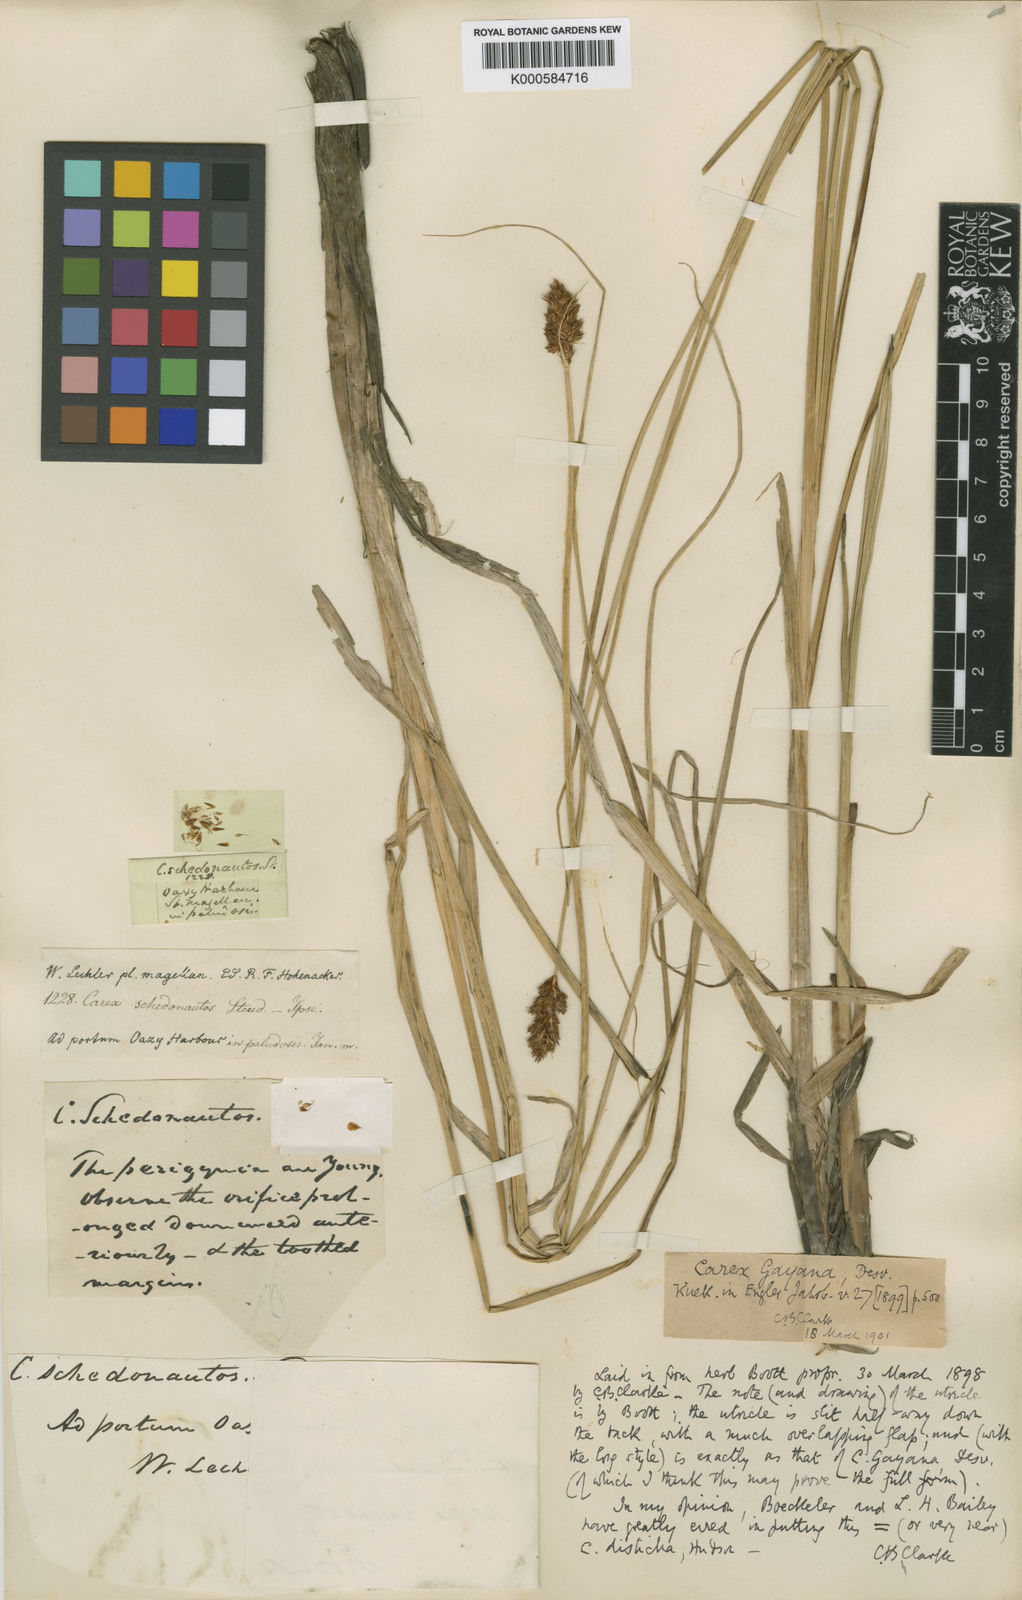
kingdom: Plantae
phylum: Tracheophyta
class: Liliopsida
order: Poales
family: Cyperaceae
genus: Carex
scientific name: Carex gayana
